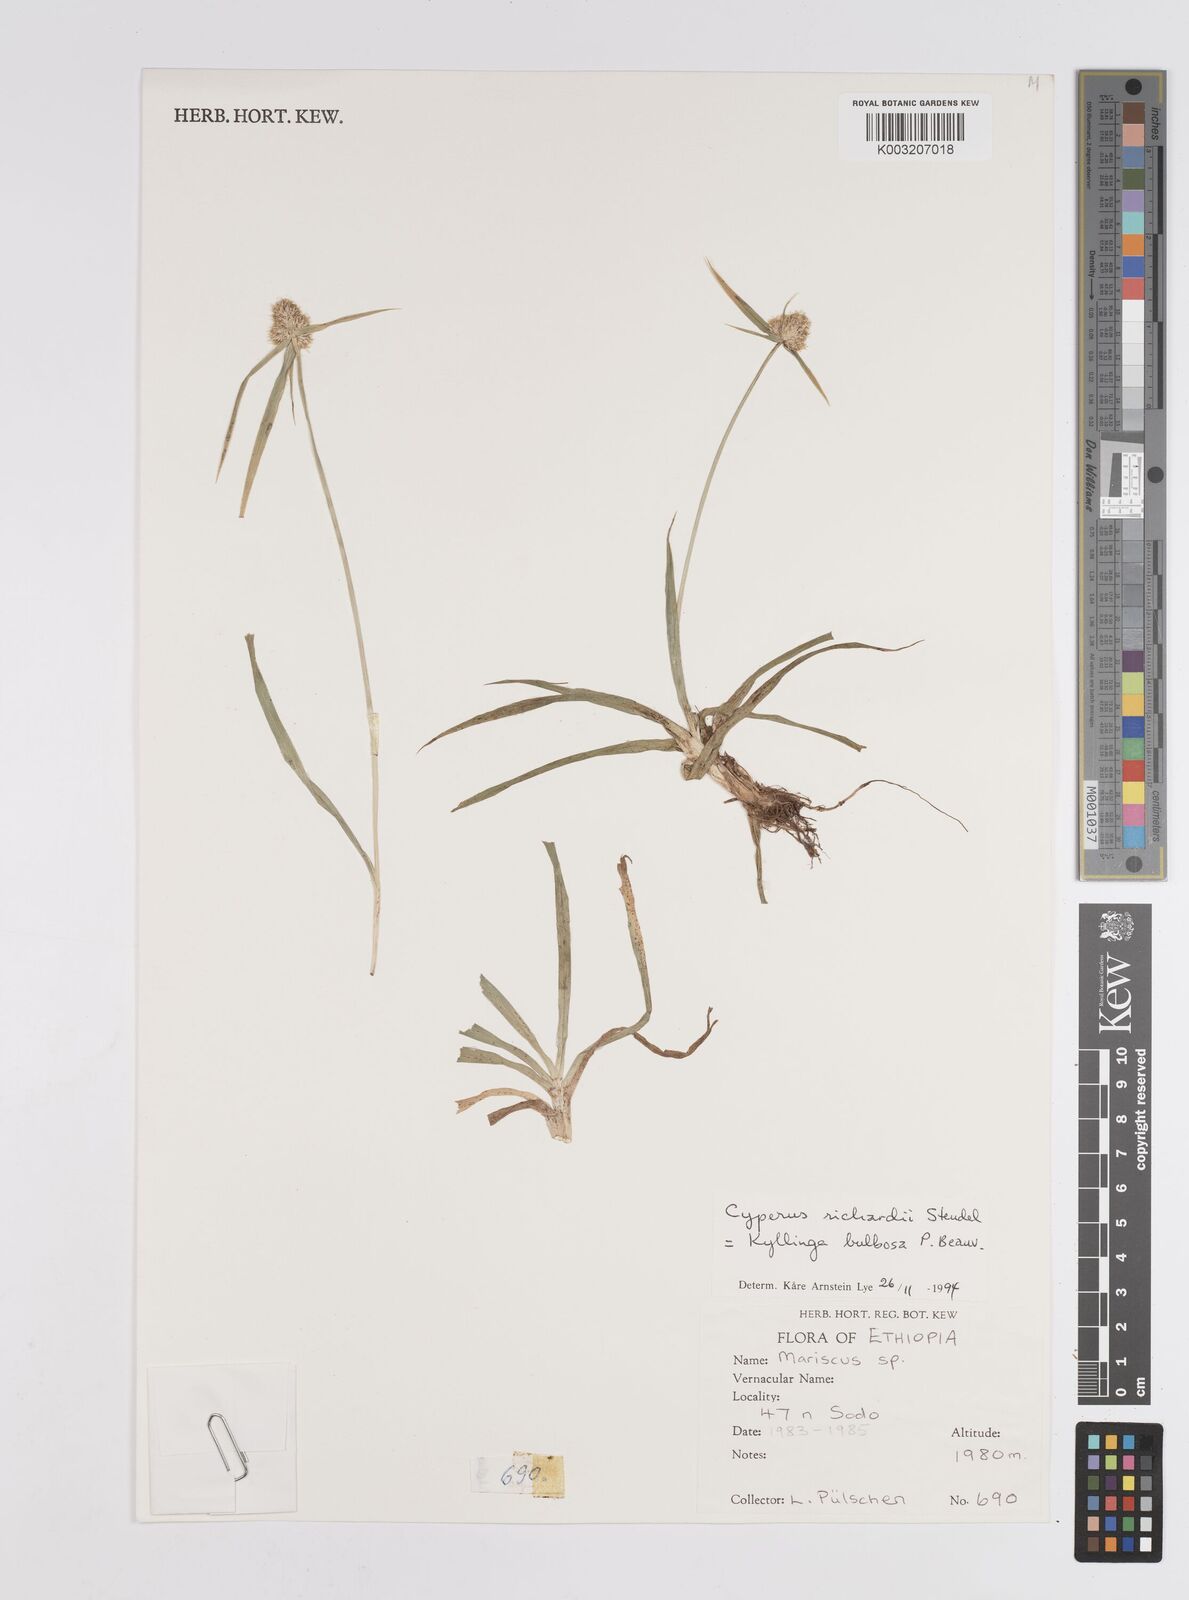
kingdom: Plantae
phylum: Tracheophyta
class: Liliopsida
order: Poales
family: Cyperaceae
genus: Cyperus
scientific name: Cyperus
